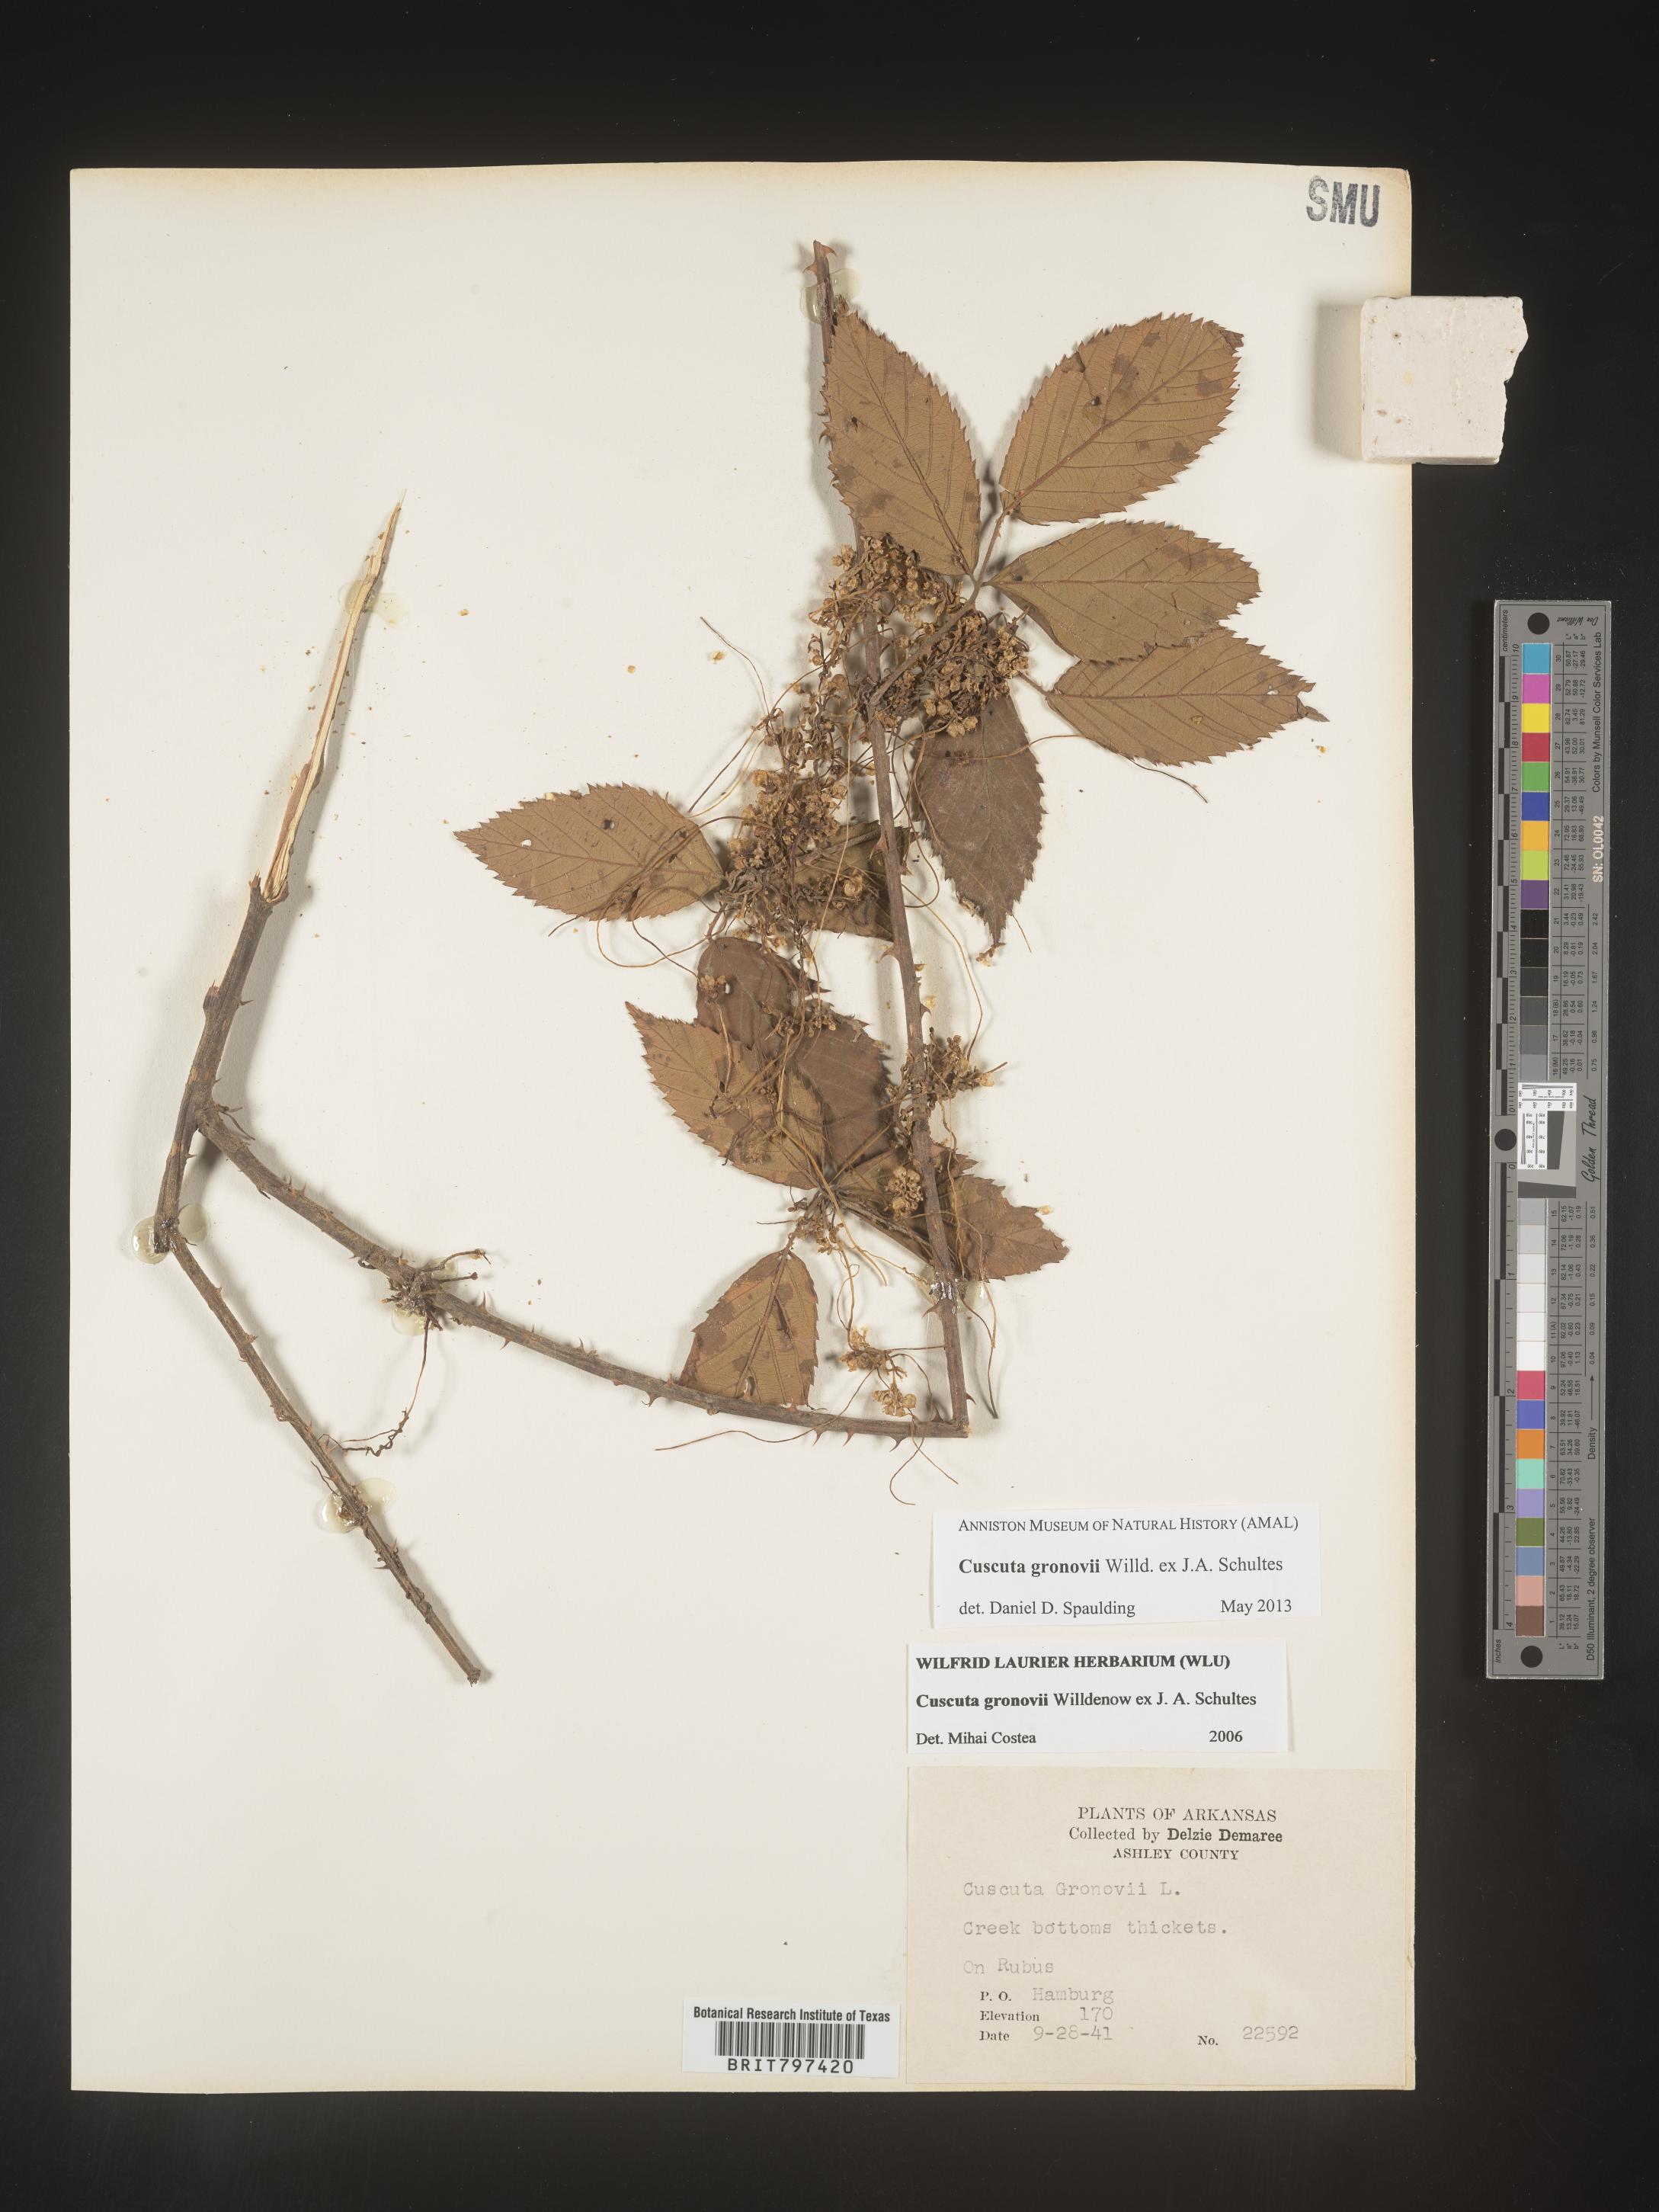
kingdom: Plantae
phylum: Tracheophyta
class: Magnoliopsida
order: Solanales
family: Convolvulaceae
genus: Cuscuta
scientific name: Cuscuta gronovii
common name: Common dodder
